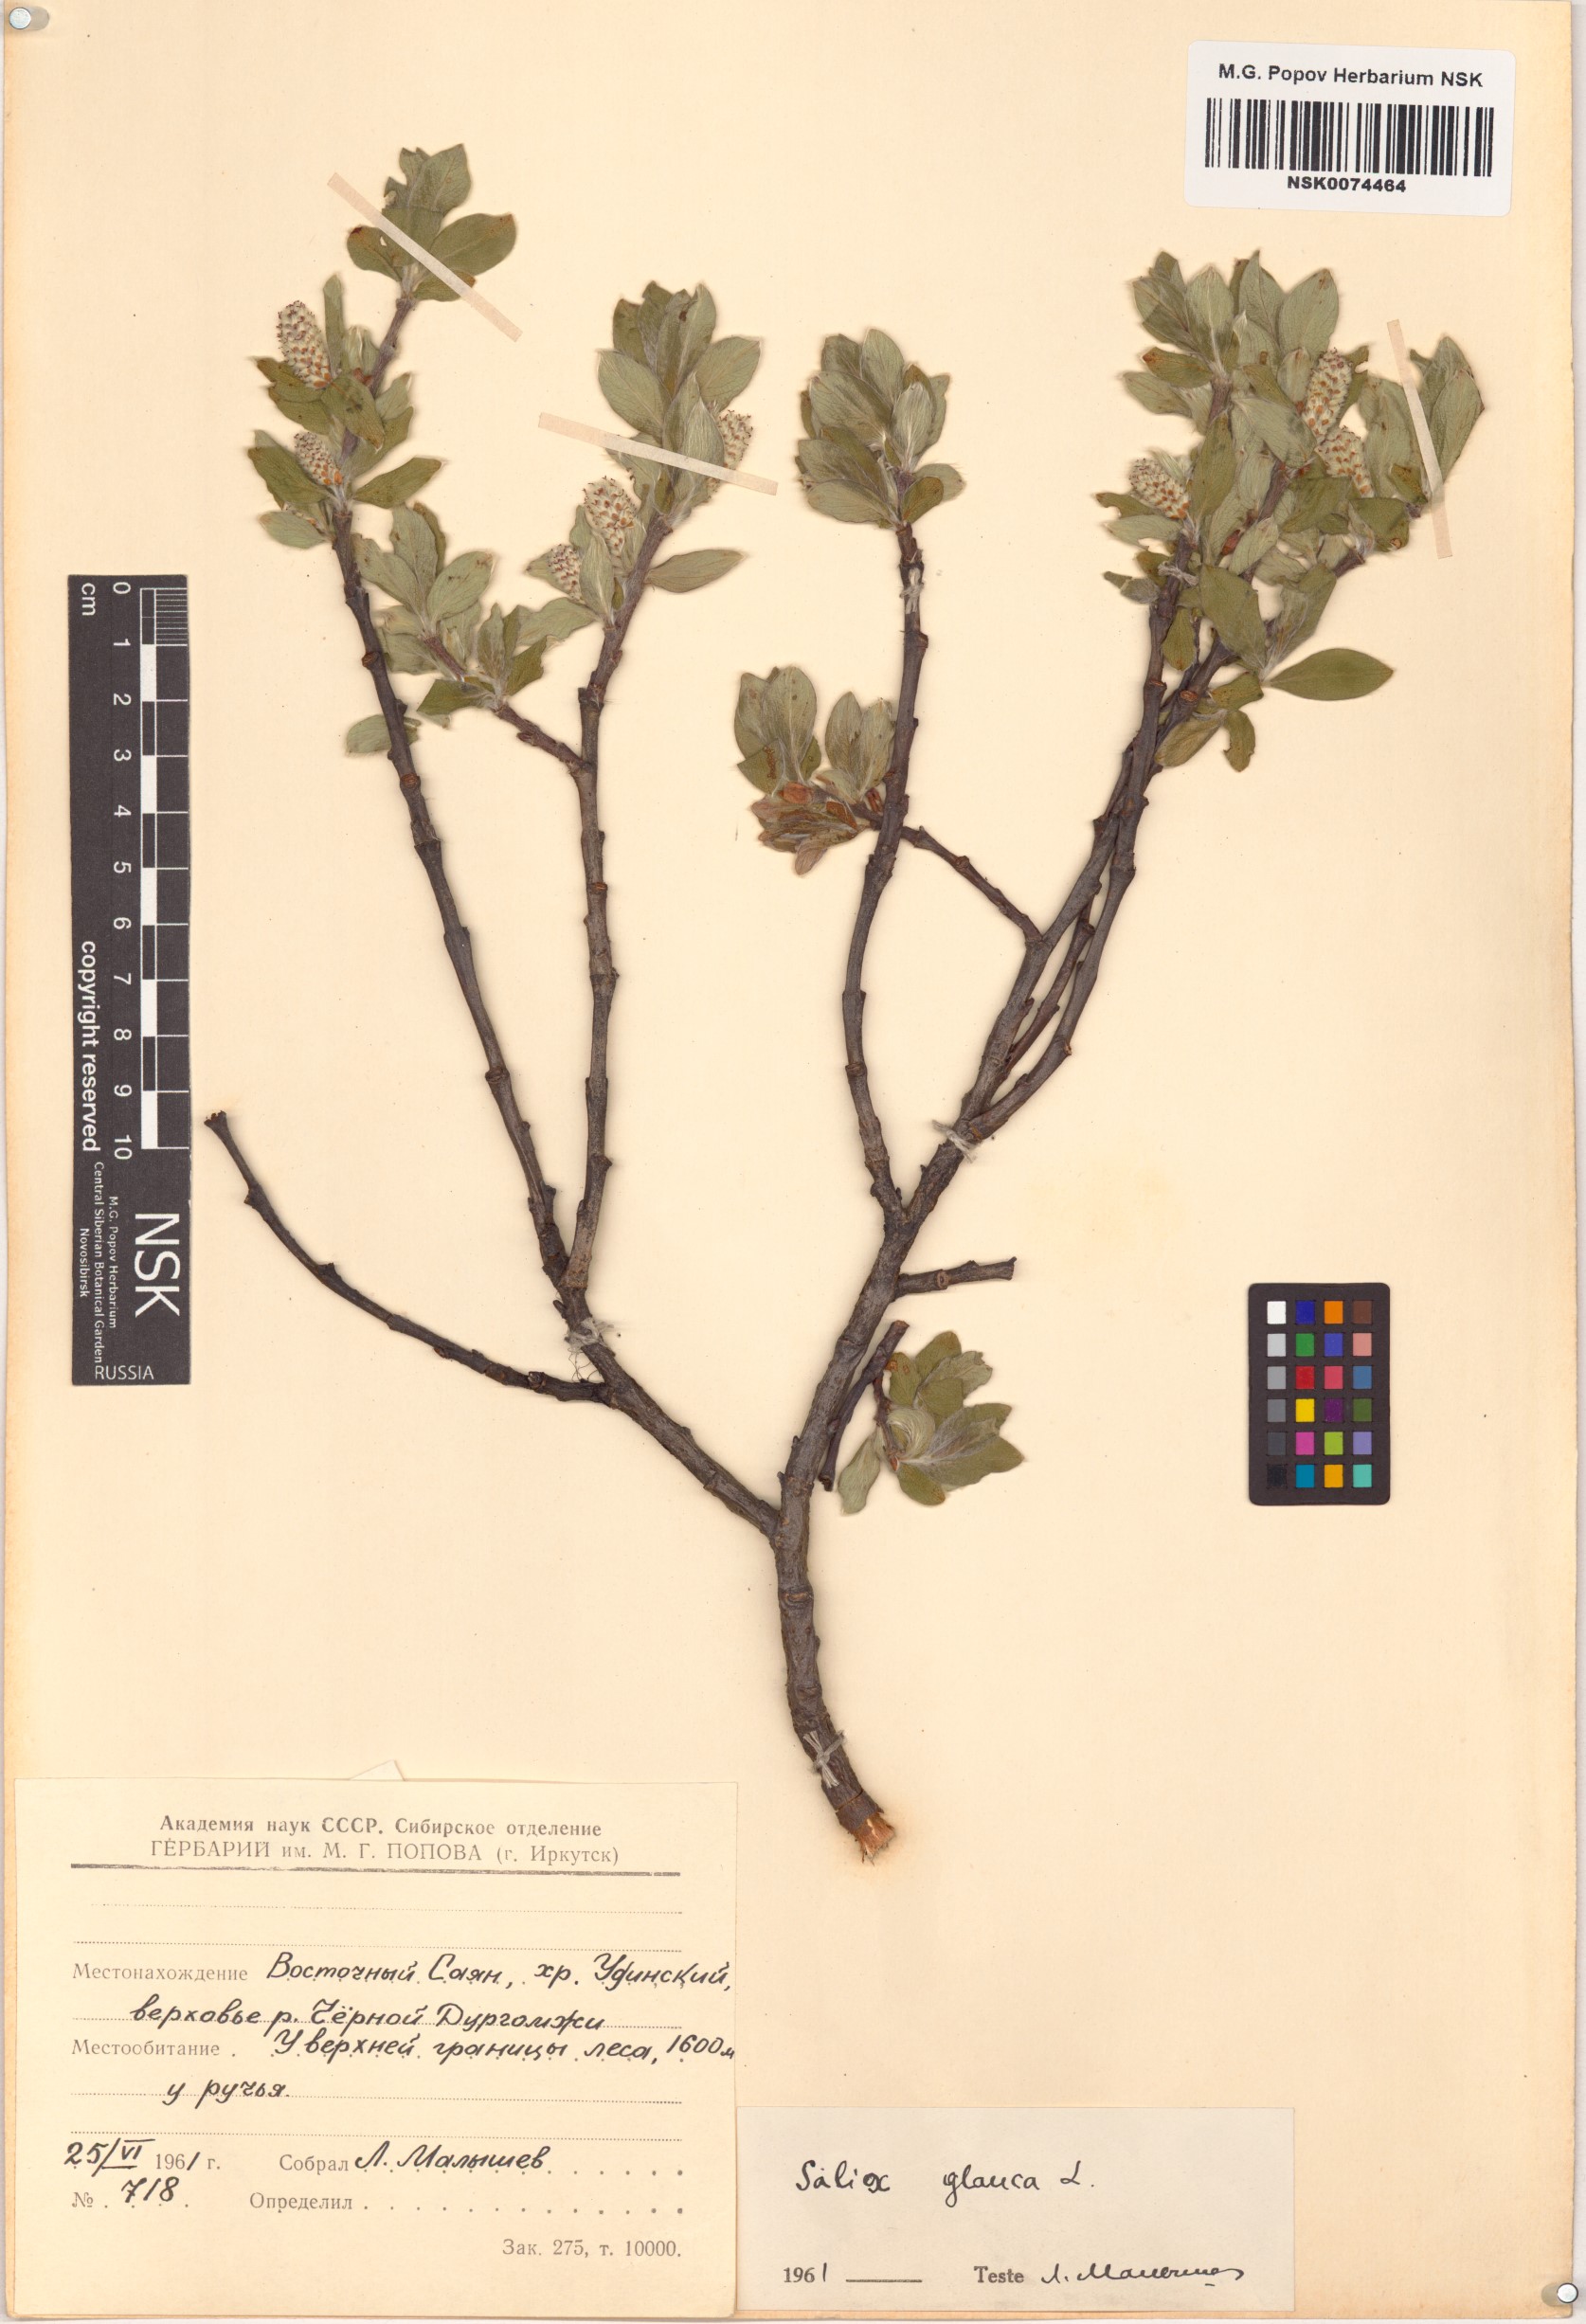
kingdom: Plantae
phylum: Tracheophyta
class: Magnoliopsida
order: Malpighiales
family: Salicaceae
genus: Salix
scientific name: Salix glauca
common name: Glaucous willow
